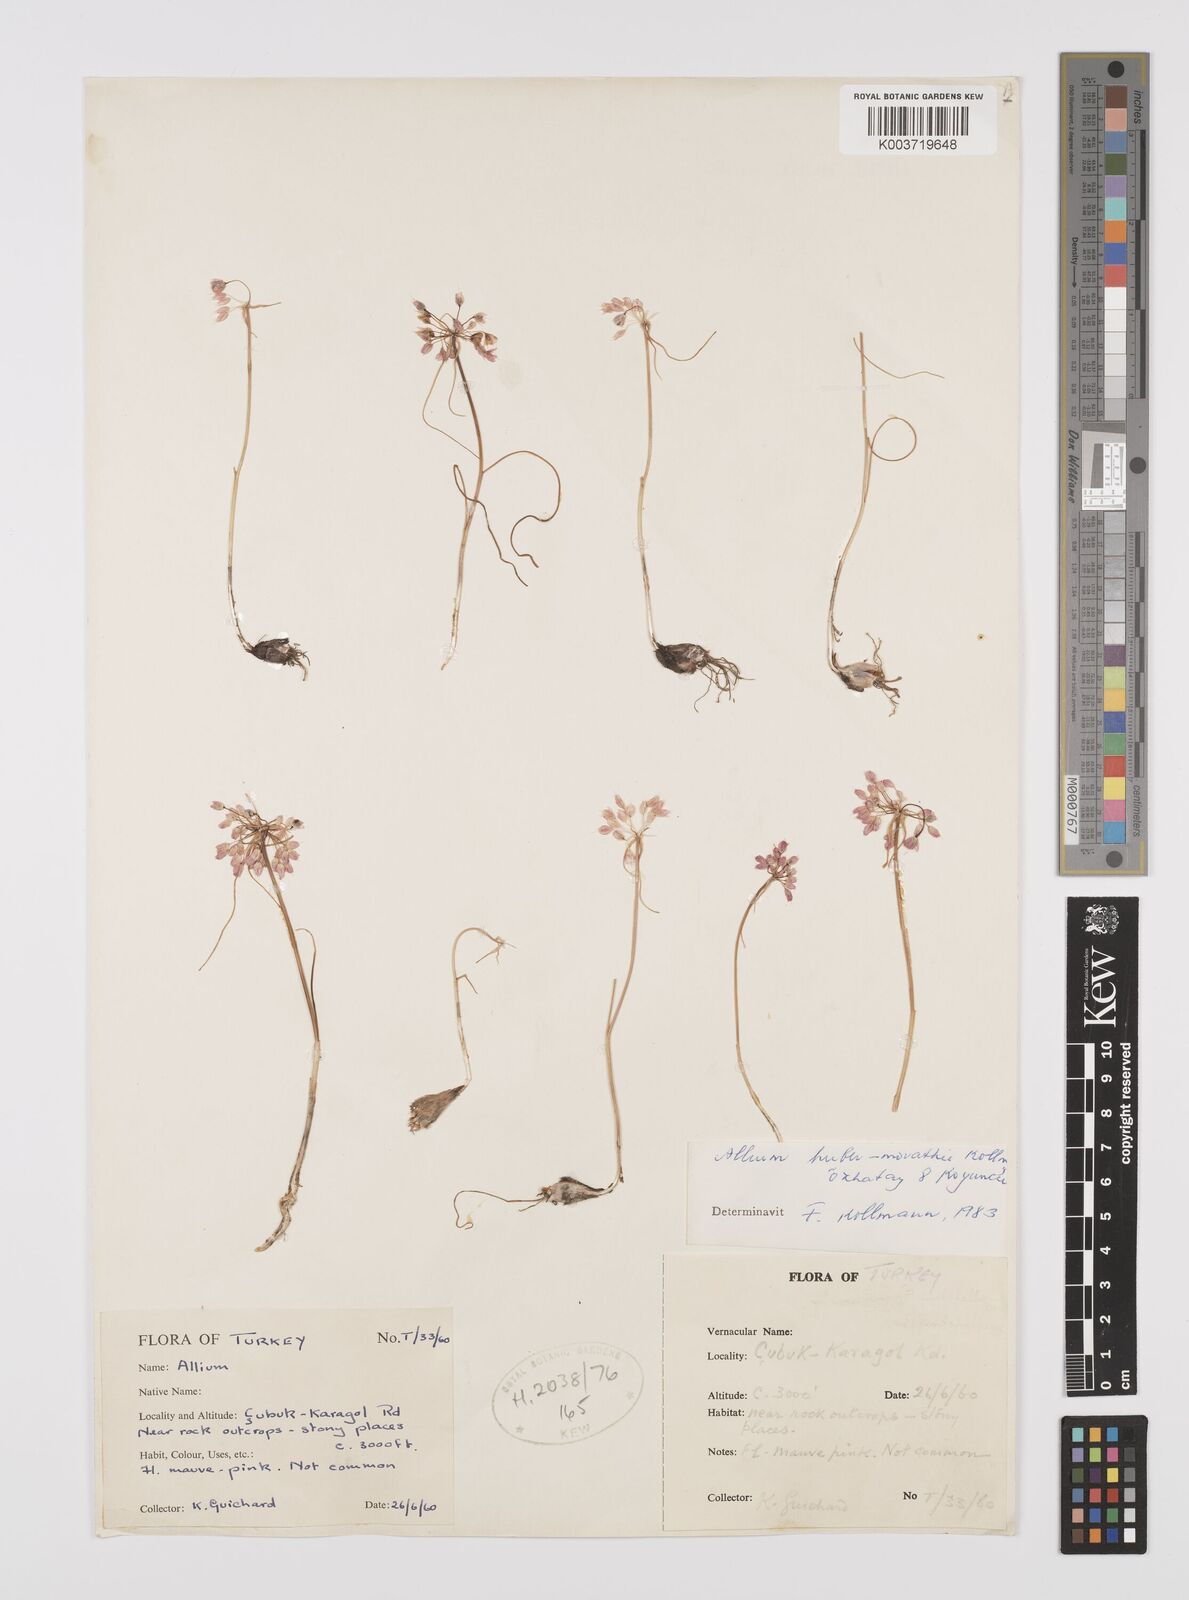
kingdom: Plantae
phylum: Tracheophyta
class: Liliopsida
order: Asparagales
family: Amaryllidaceae
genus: Allium
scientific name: Allium huber-morathii
